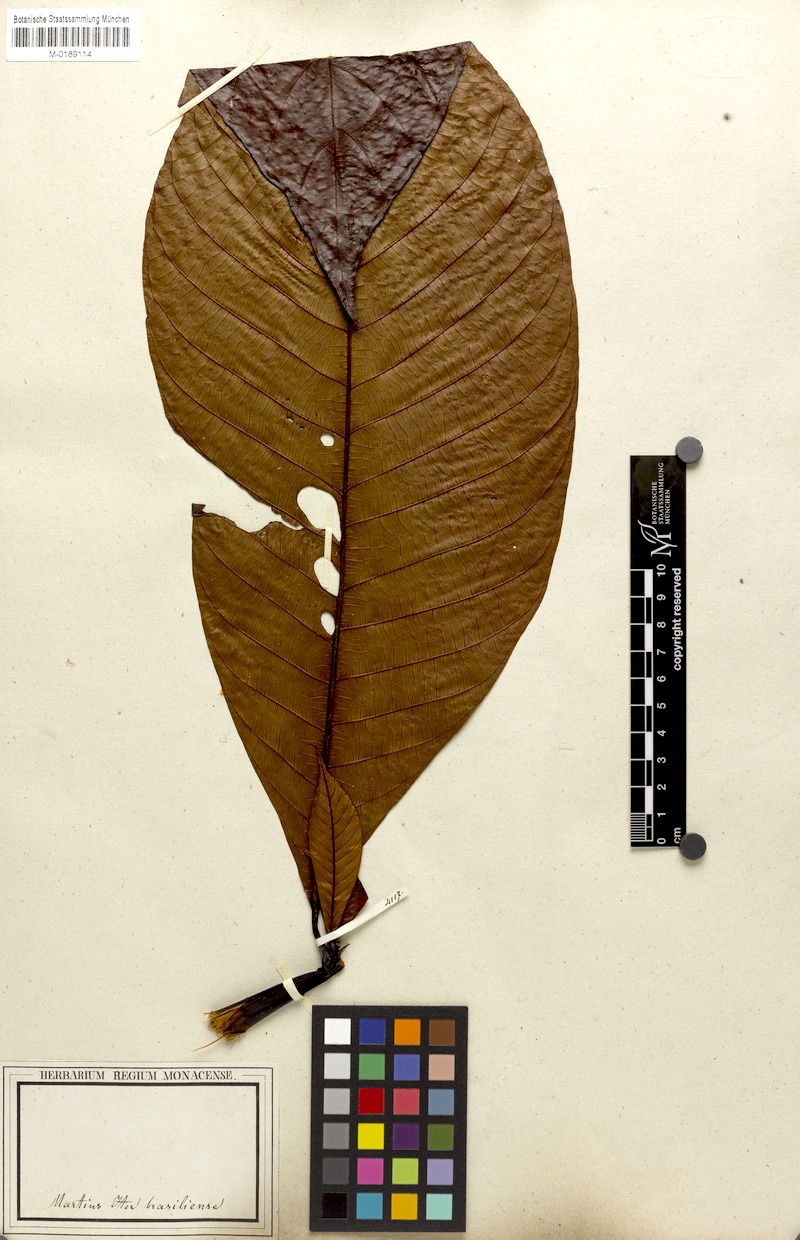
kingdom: Plantae
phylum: Tracheophyta
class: Magnoliopsida
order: Gentianales
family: Rubiaceae
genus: Palicourea
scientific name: Palicourea regina
